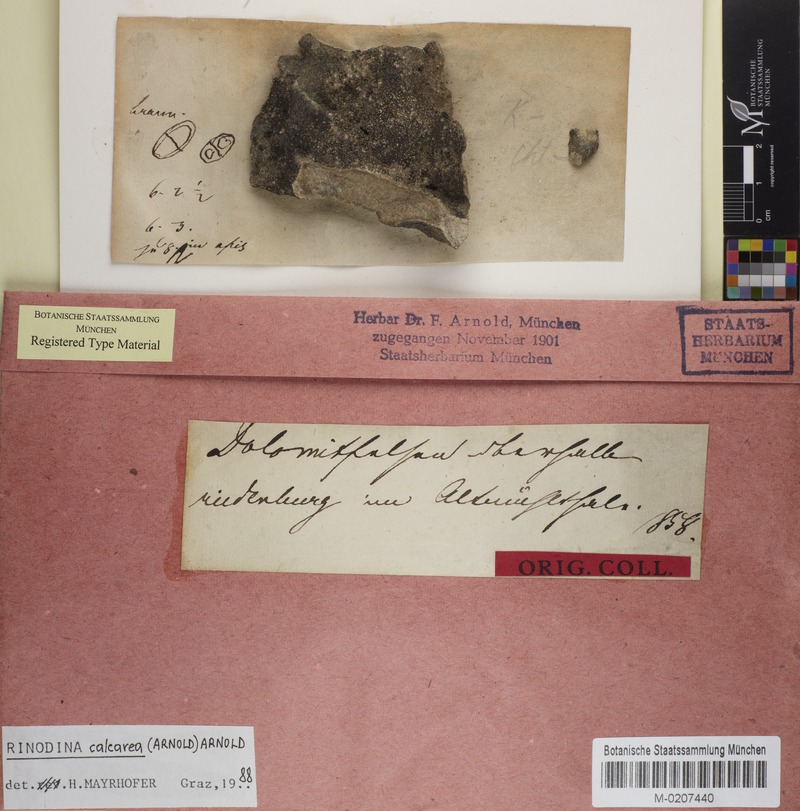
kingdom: Fungi
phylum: Ascomycota
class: Lecanoromycetes
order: Caliciales
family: Physciaceae
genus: Rinodina
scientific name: Rinodina calcarea
